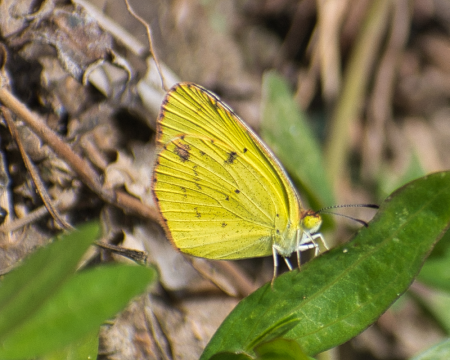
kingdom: Animalia
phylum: Arthropoda
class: Insecta
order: Lepidoptera
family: Pieridae
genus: Pyrisitia
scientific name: Pyrisitia lisa
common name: Little Yellow
